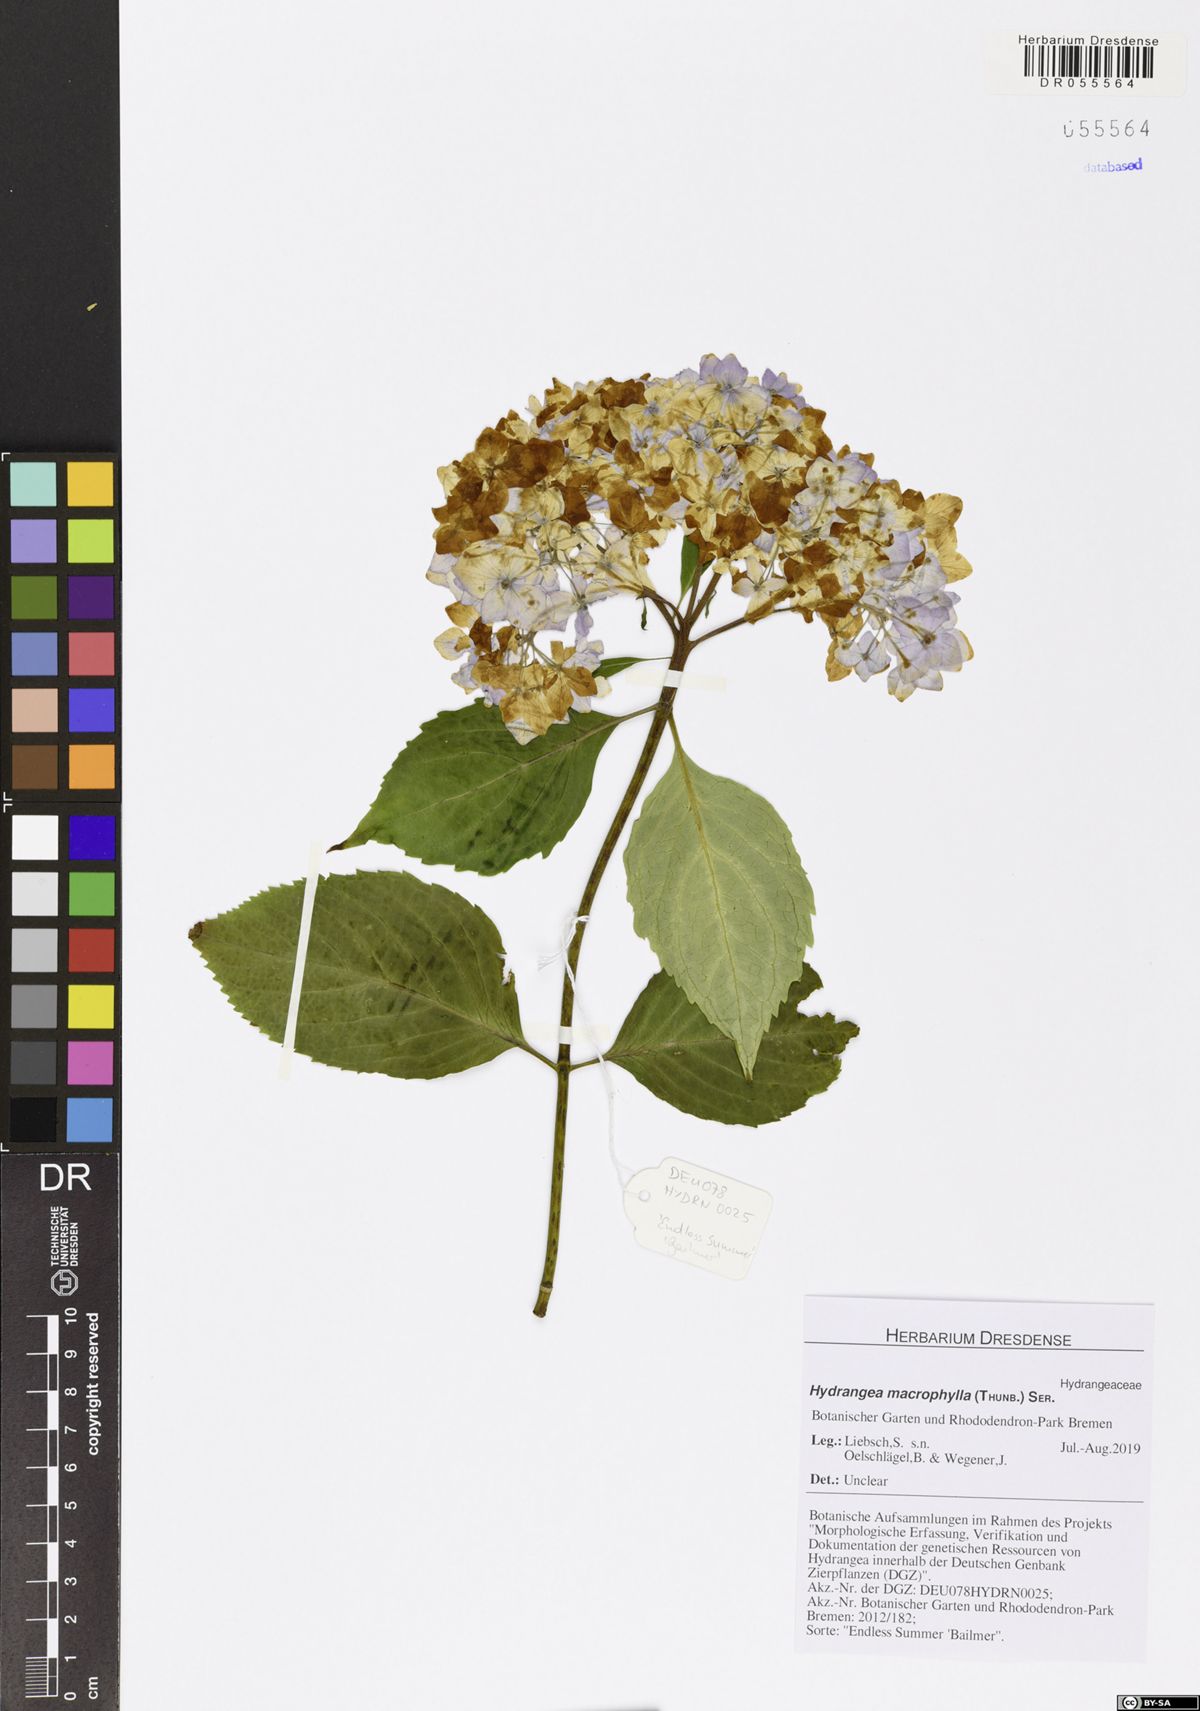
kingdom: Plantae
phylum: Tracheophyta
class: Magnoliopsida
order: Cornales
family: Hydrangeaceae
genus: Hydrangea
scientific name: Hydrangea macrophylla
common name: Hydrangea
